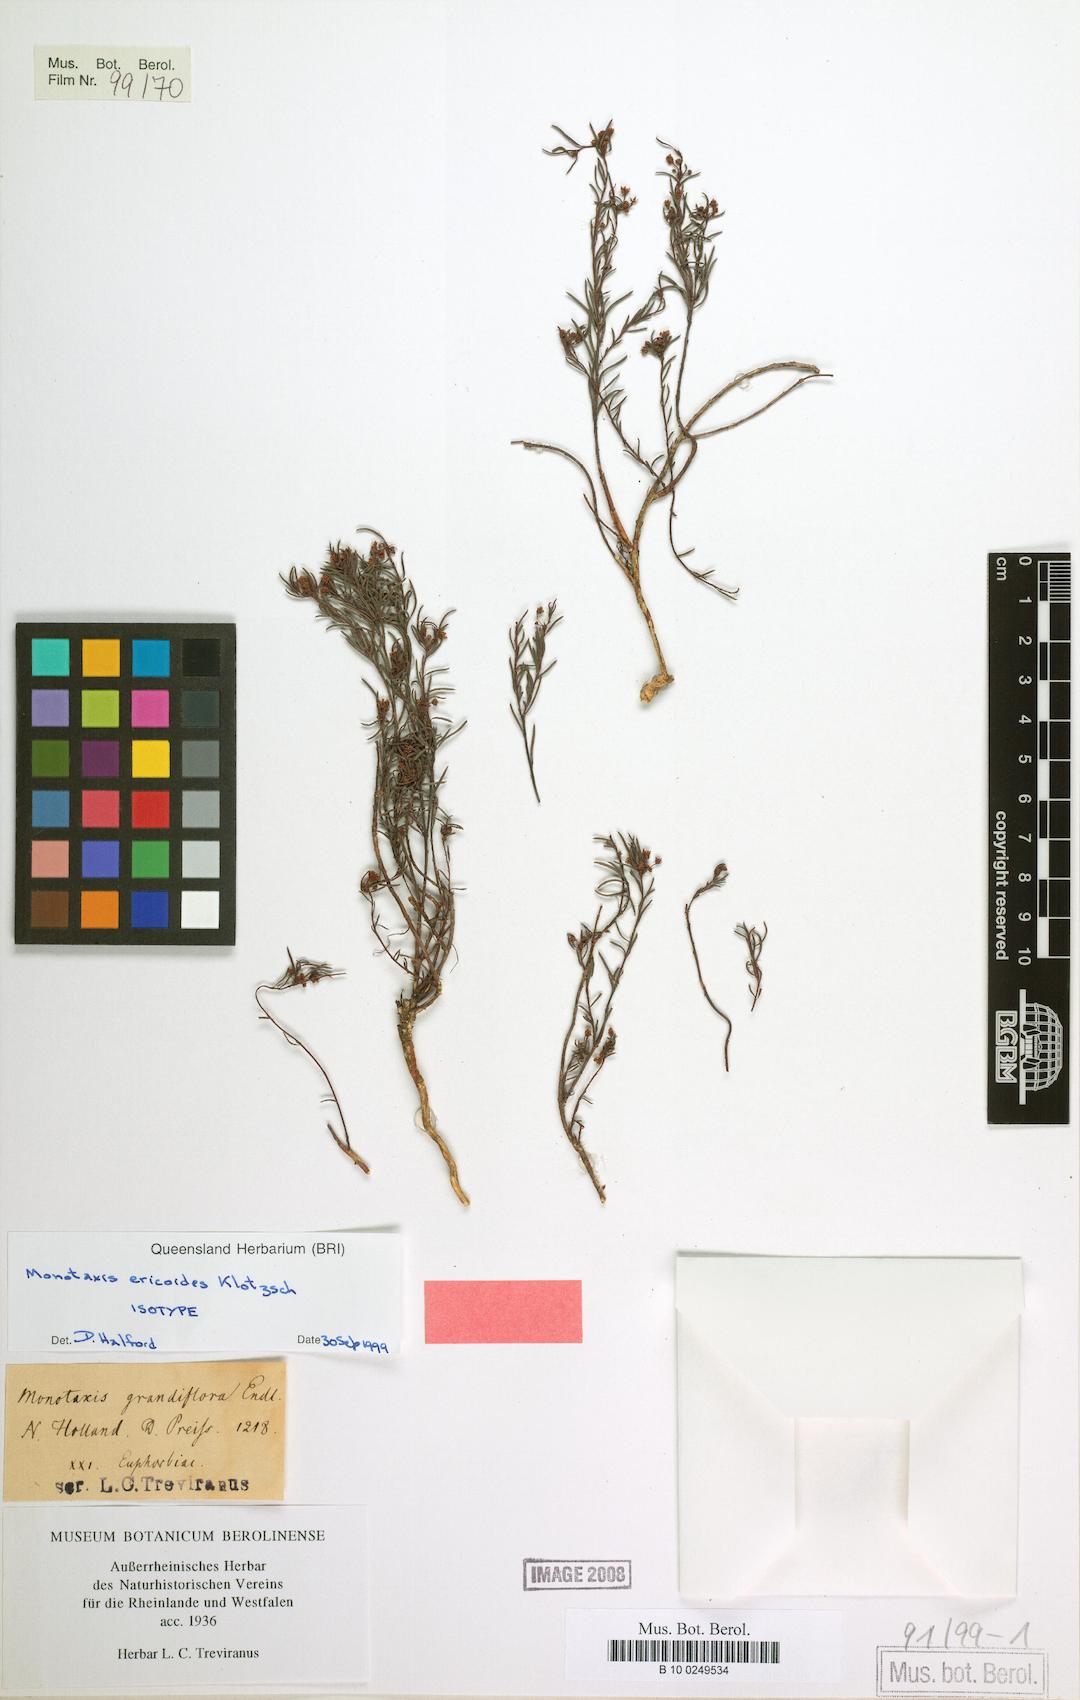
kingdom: Plantae
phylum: Tracheophyta
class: Magnoliopsida
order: Malpighiales
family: Euphorbiaceae
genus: Monotaxis
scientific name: Monotaxis grandiflora
